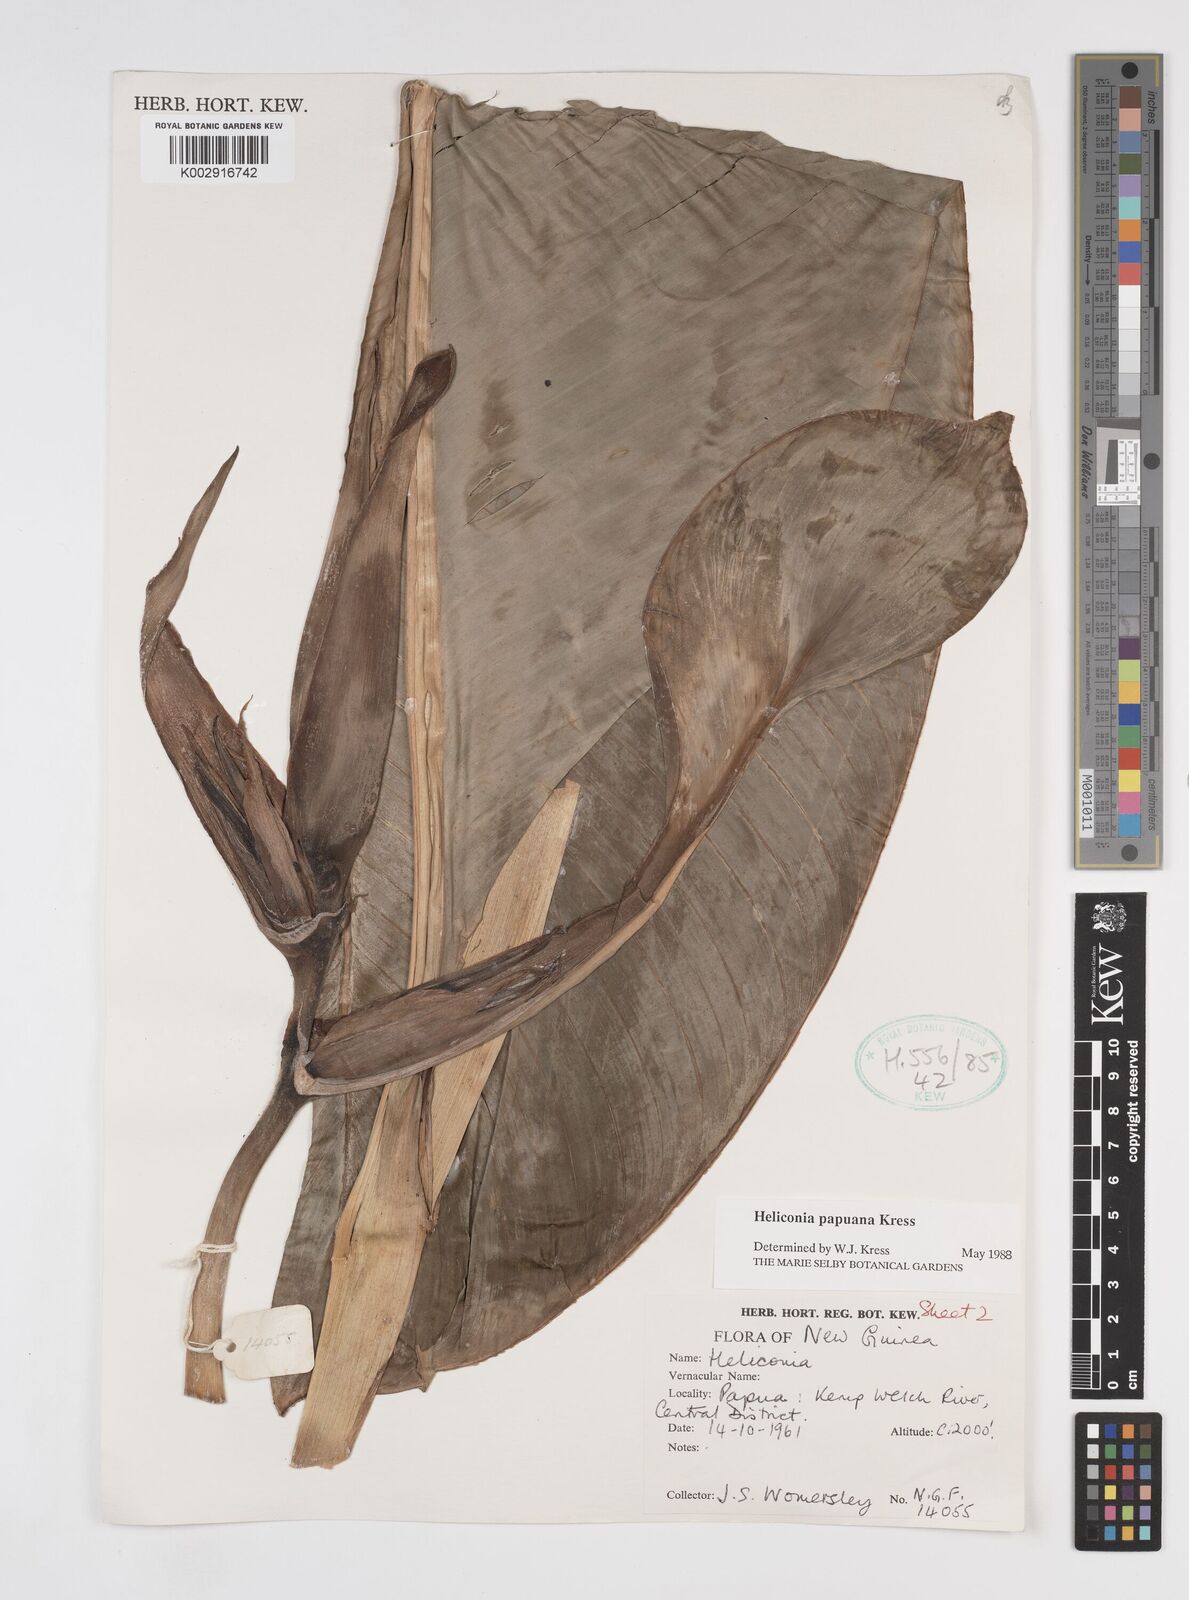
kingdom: Plantae
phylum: Tracheophyta
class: Liliopsida
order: Zingiberales
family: Heliconiaceae
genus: Heliconia
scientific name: Heliconia papuana
